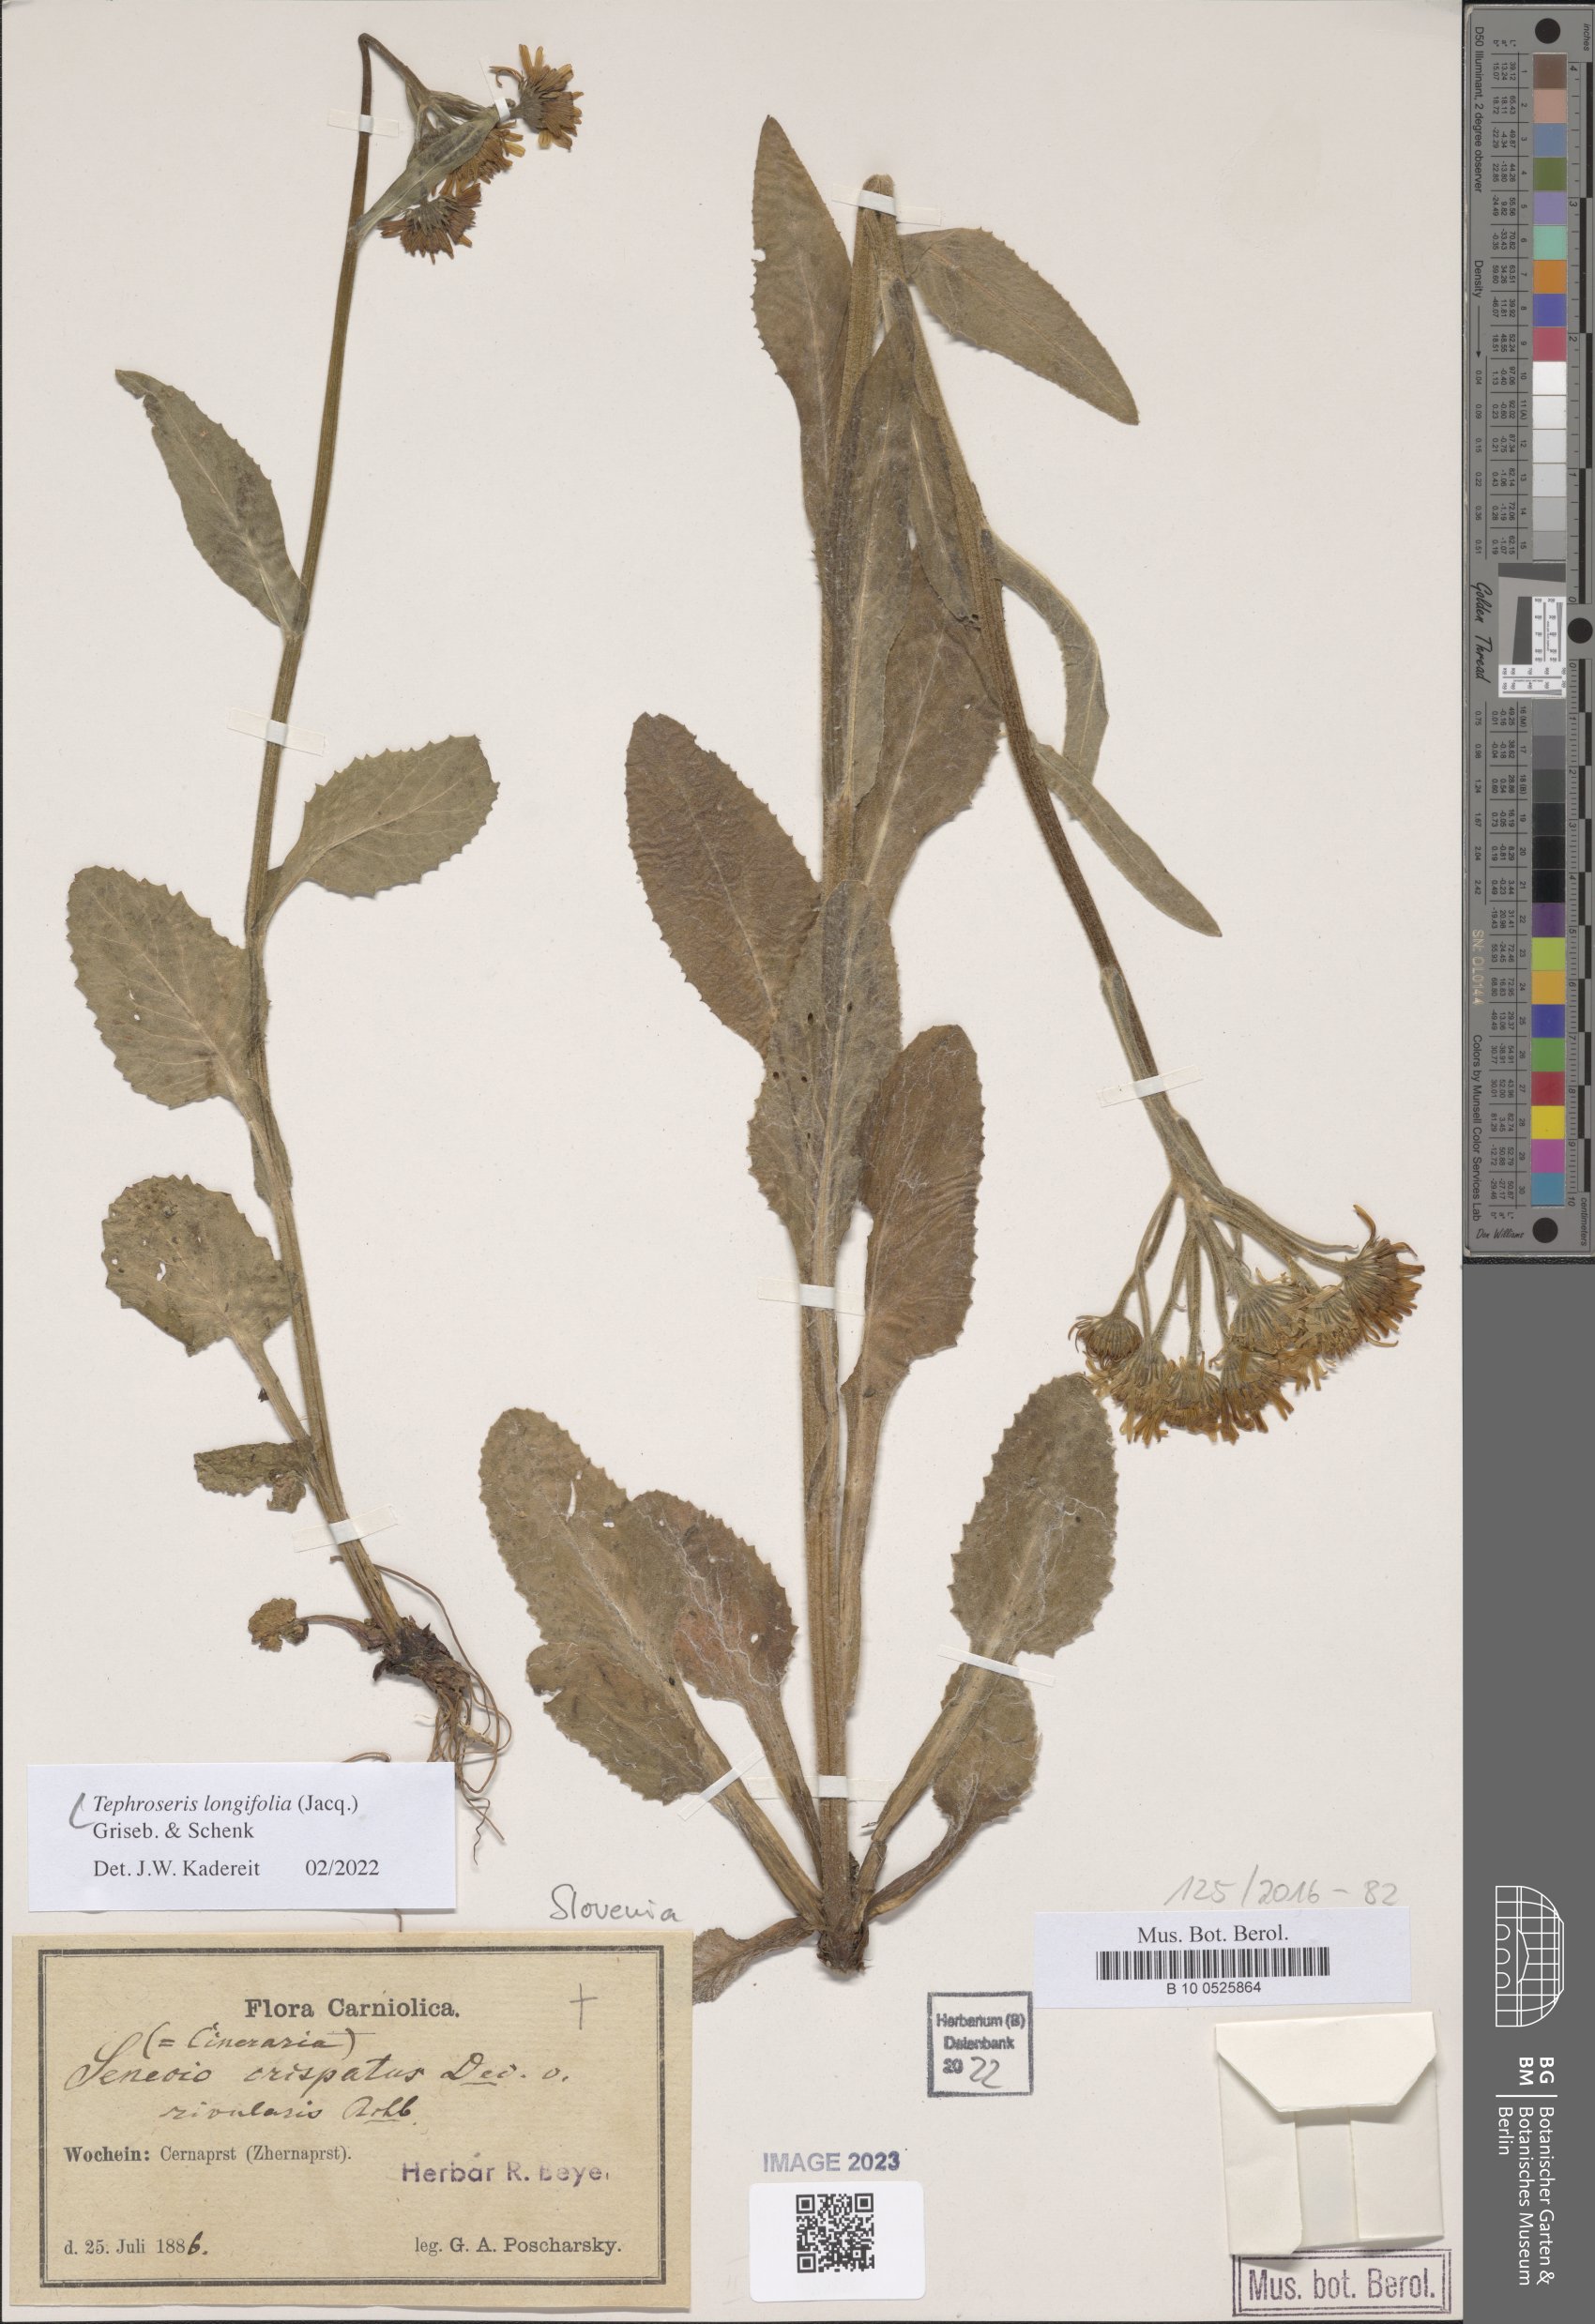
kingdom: Plantae
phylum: Tracheophyta
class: Magnoliopsida
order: Asterales
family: Asteraceae
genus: Tephroseris
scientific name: Tephroseris longifolia
